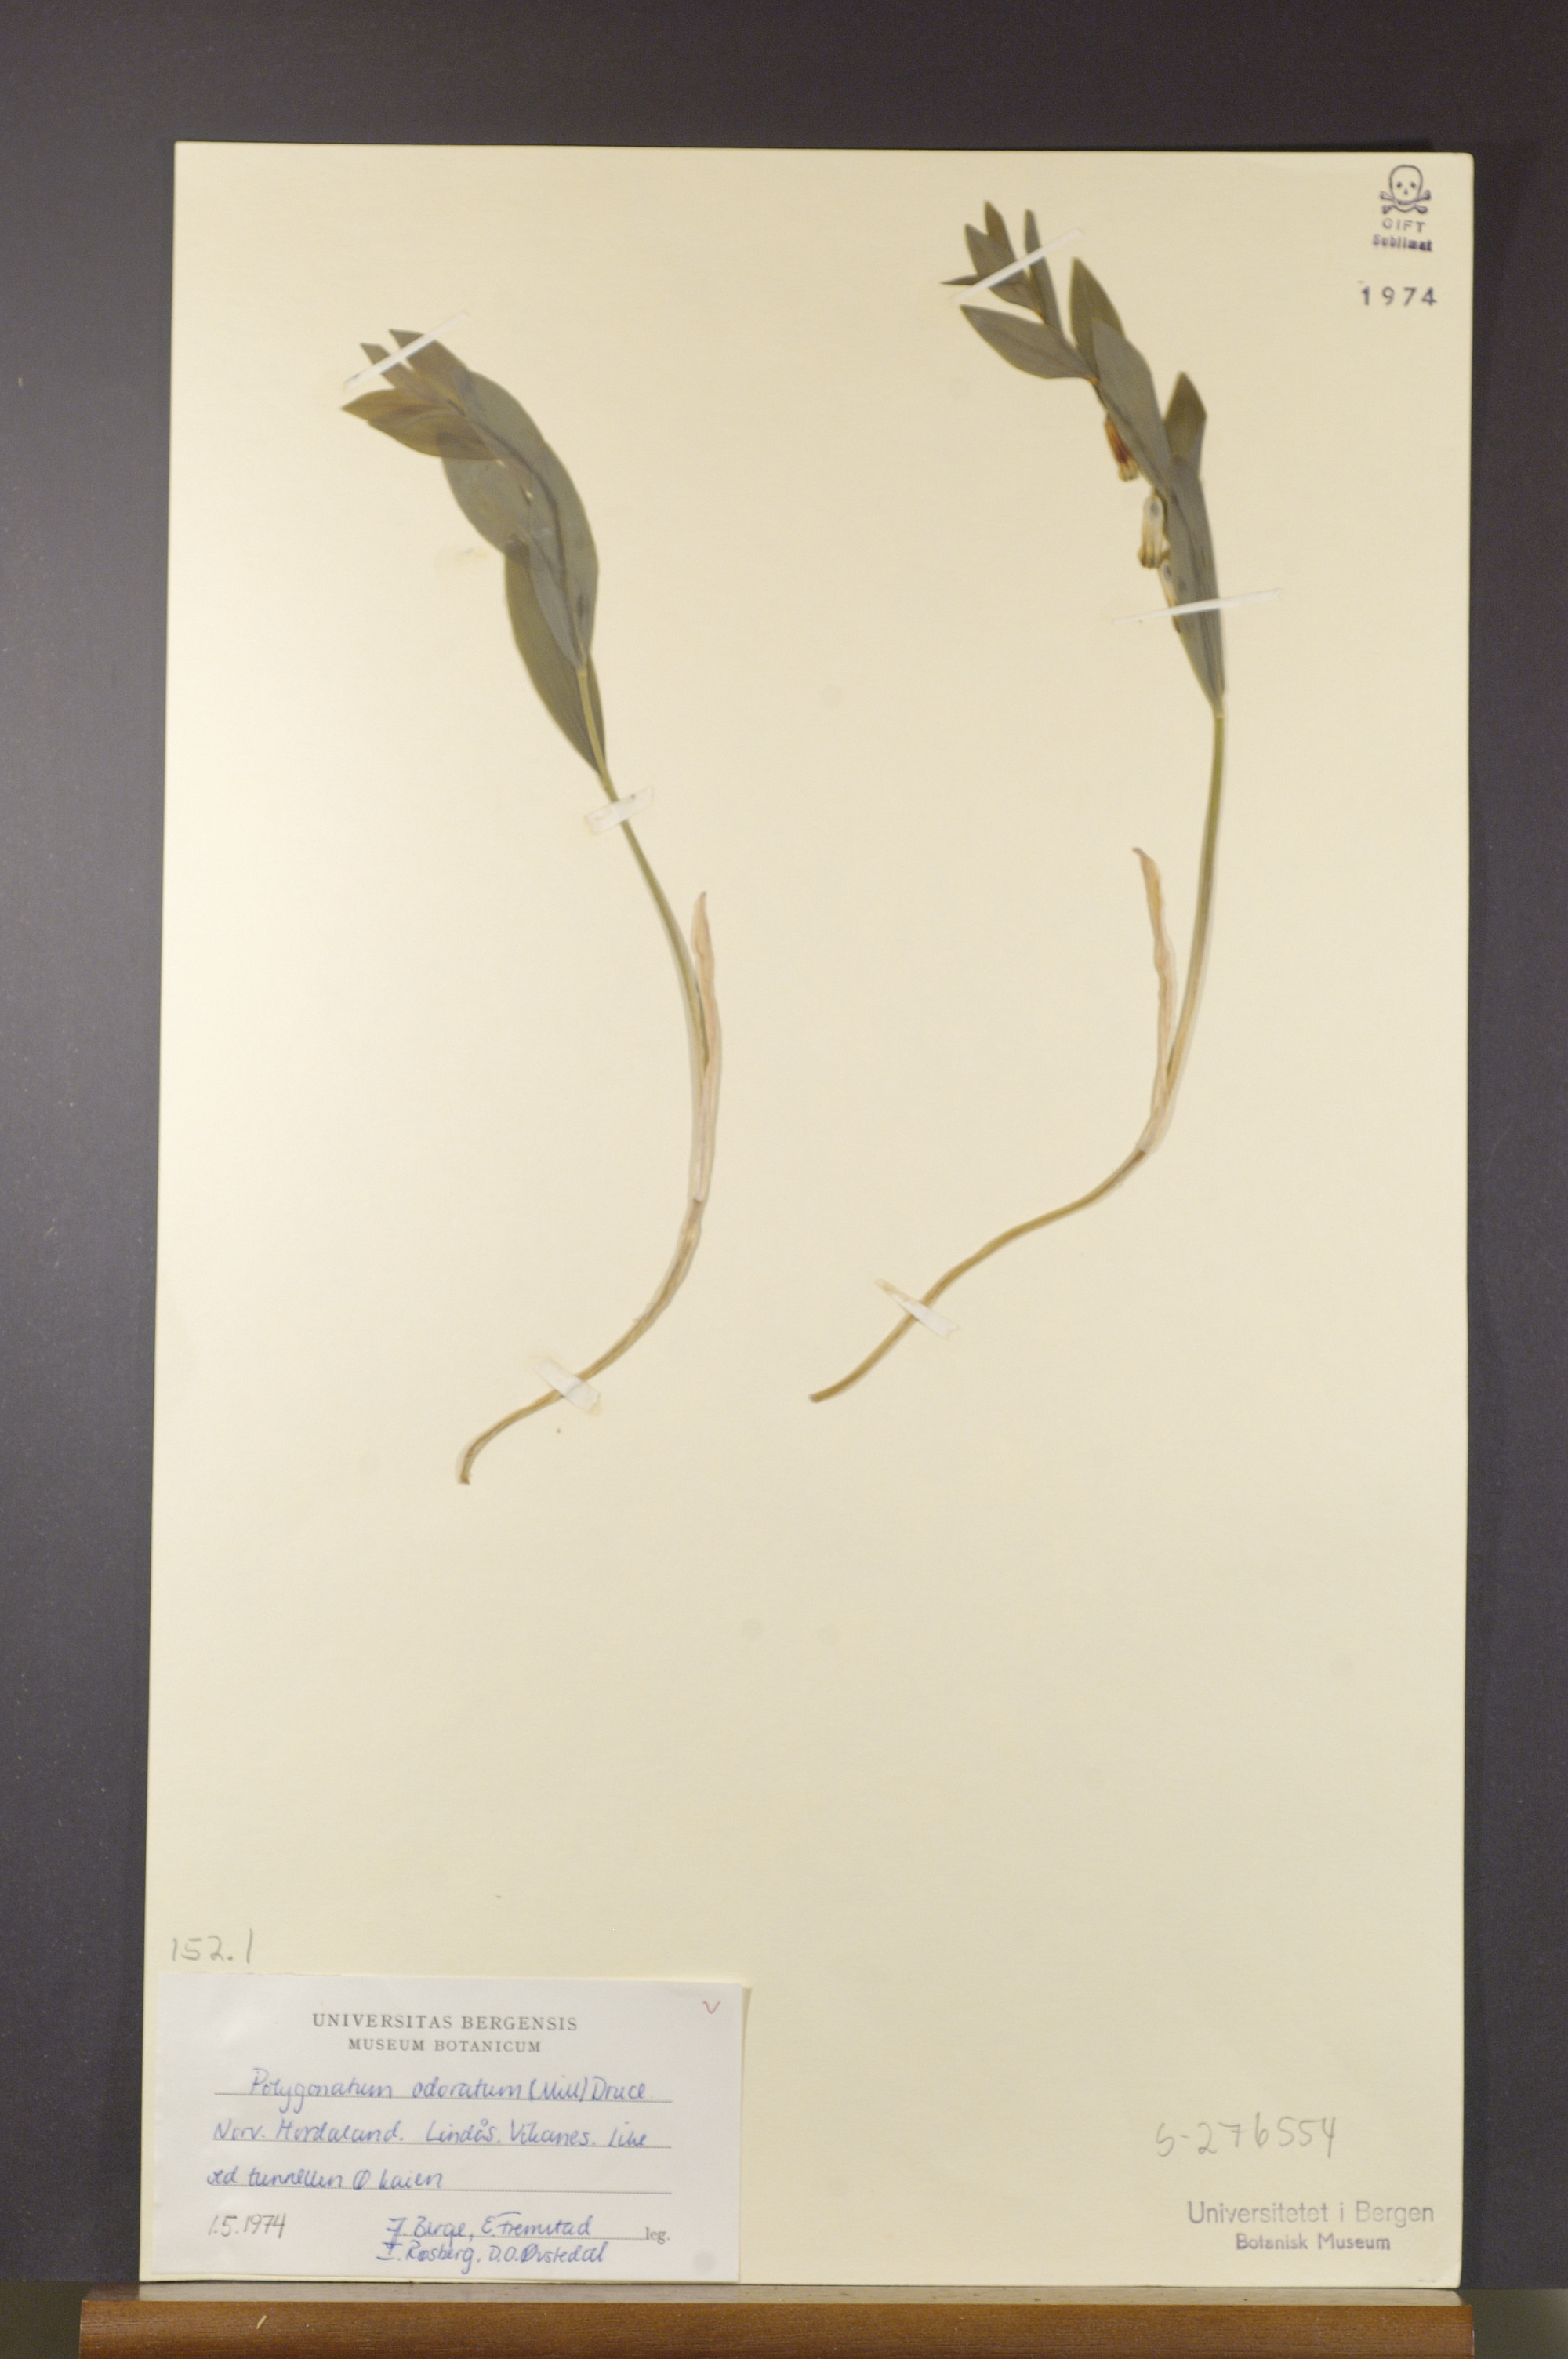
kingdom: Plantae
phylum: Tracheophyta
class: Liliopsida
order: Asparagales
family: Asparagaceae
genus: Polygonatum
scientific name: Polygonatum odoratum
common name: Angular solomon's-seal
